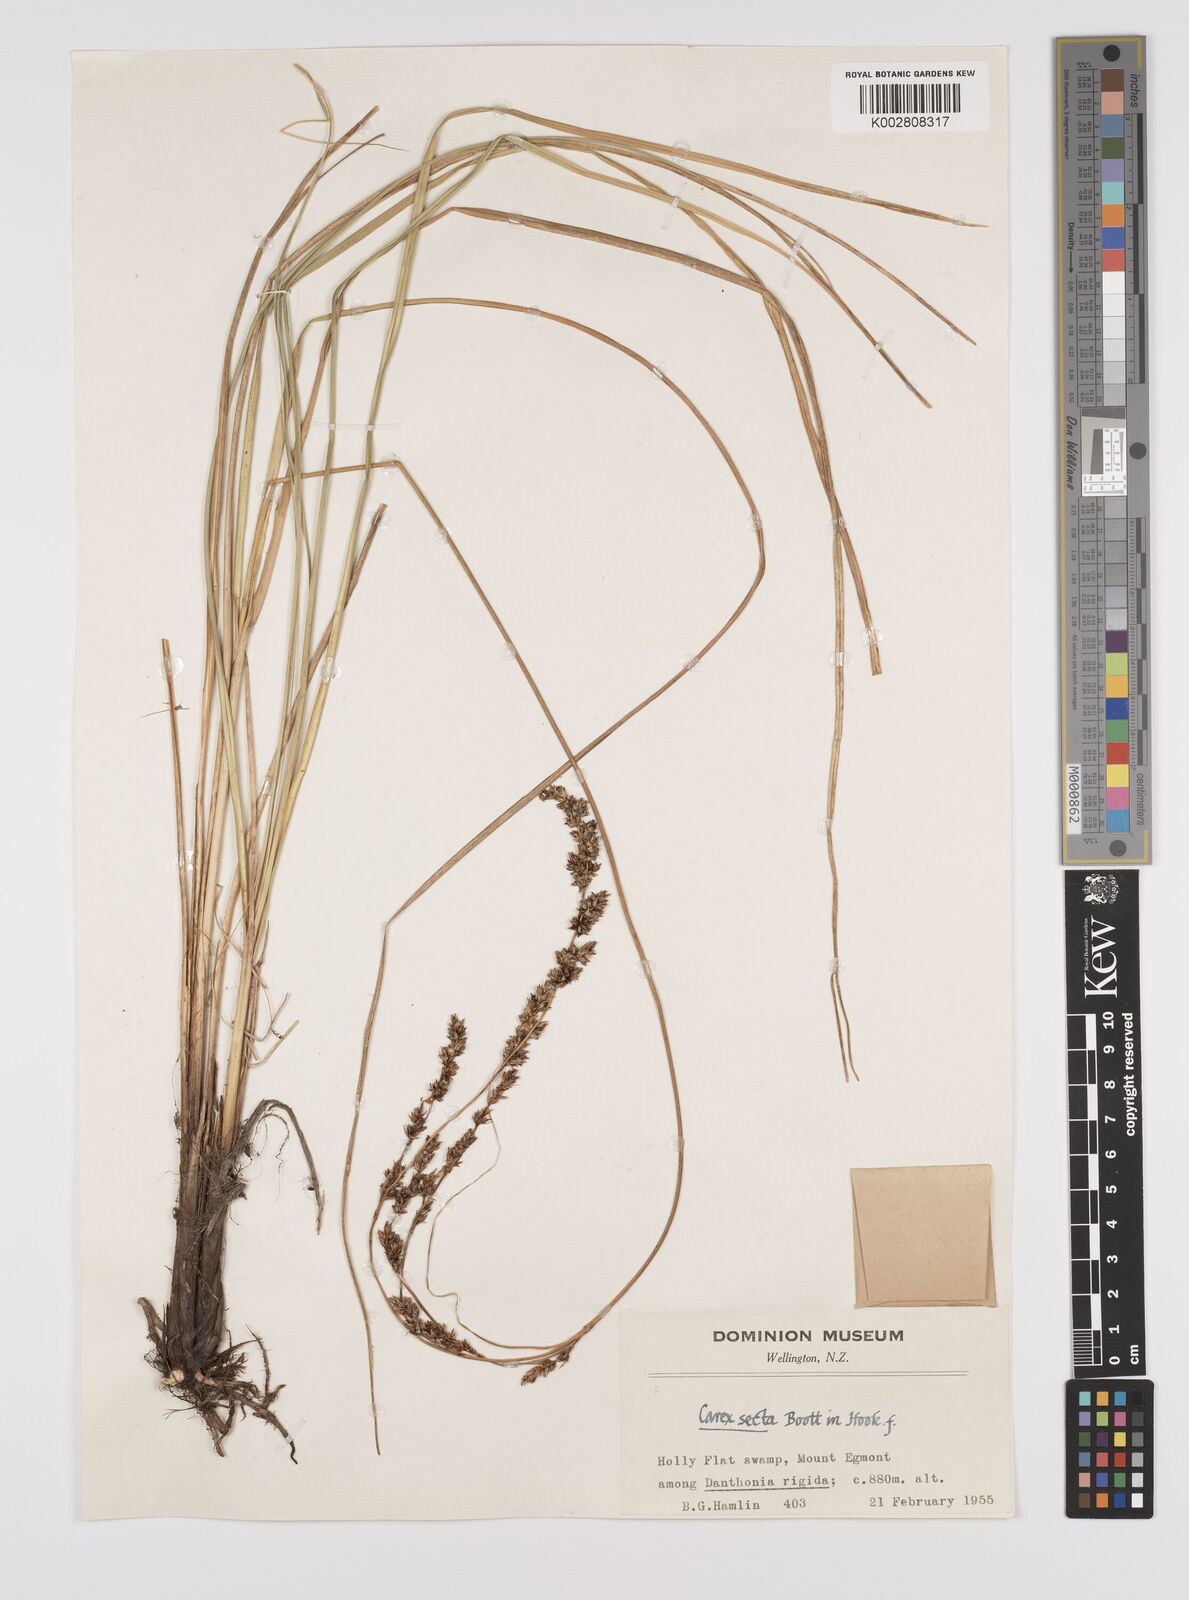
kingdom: Plantae
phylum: Tracheophyta
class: Liliopsida
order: Poales
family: Cyperaceae
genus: Carex
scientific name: Carex appressa
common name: Tussock sedge
